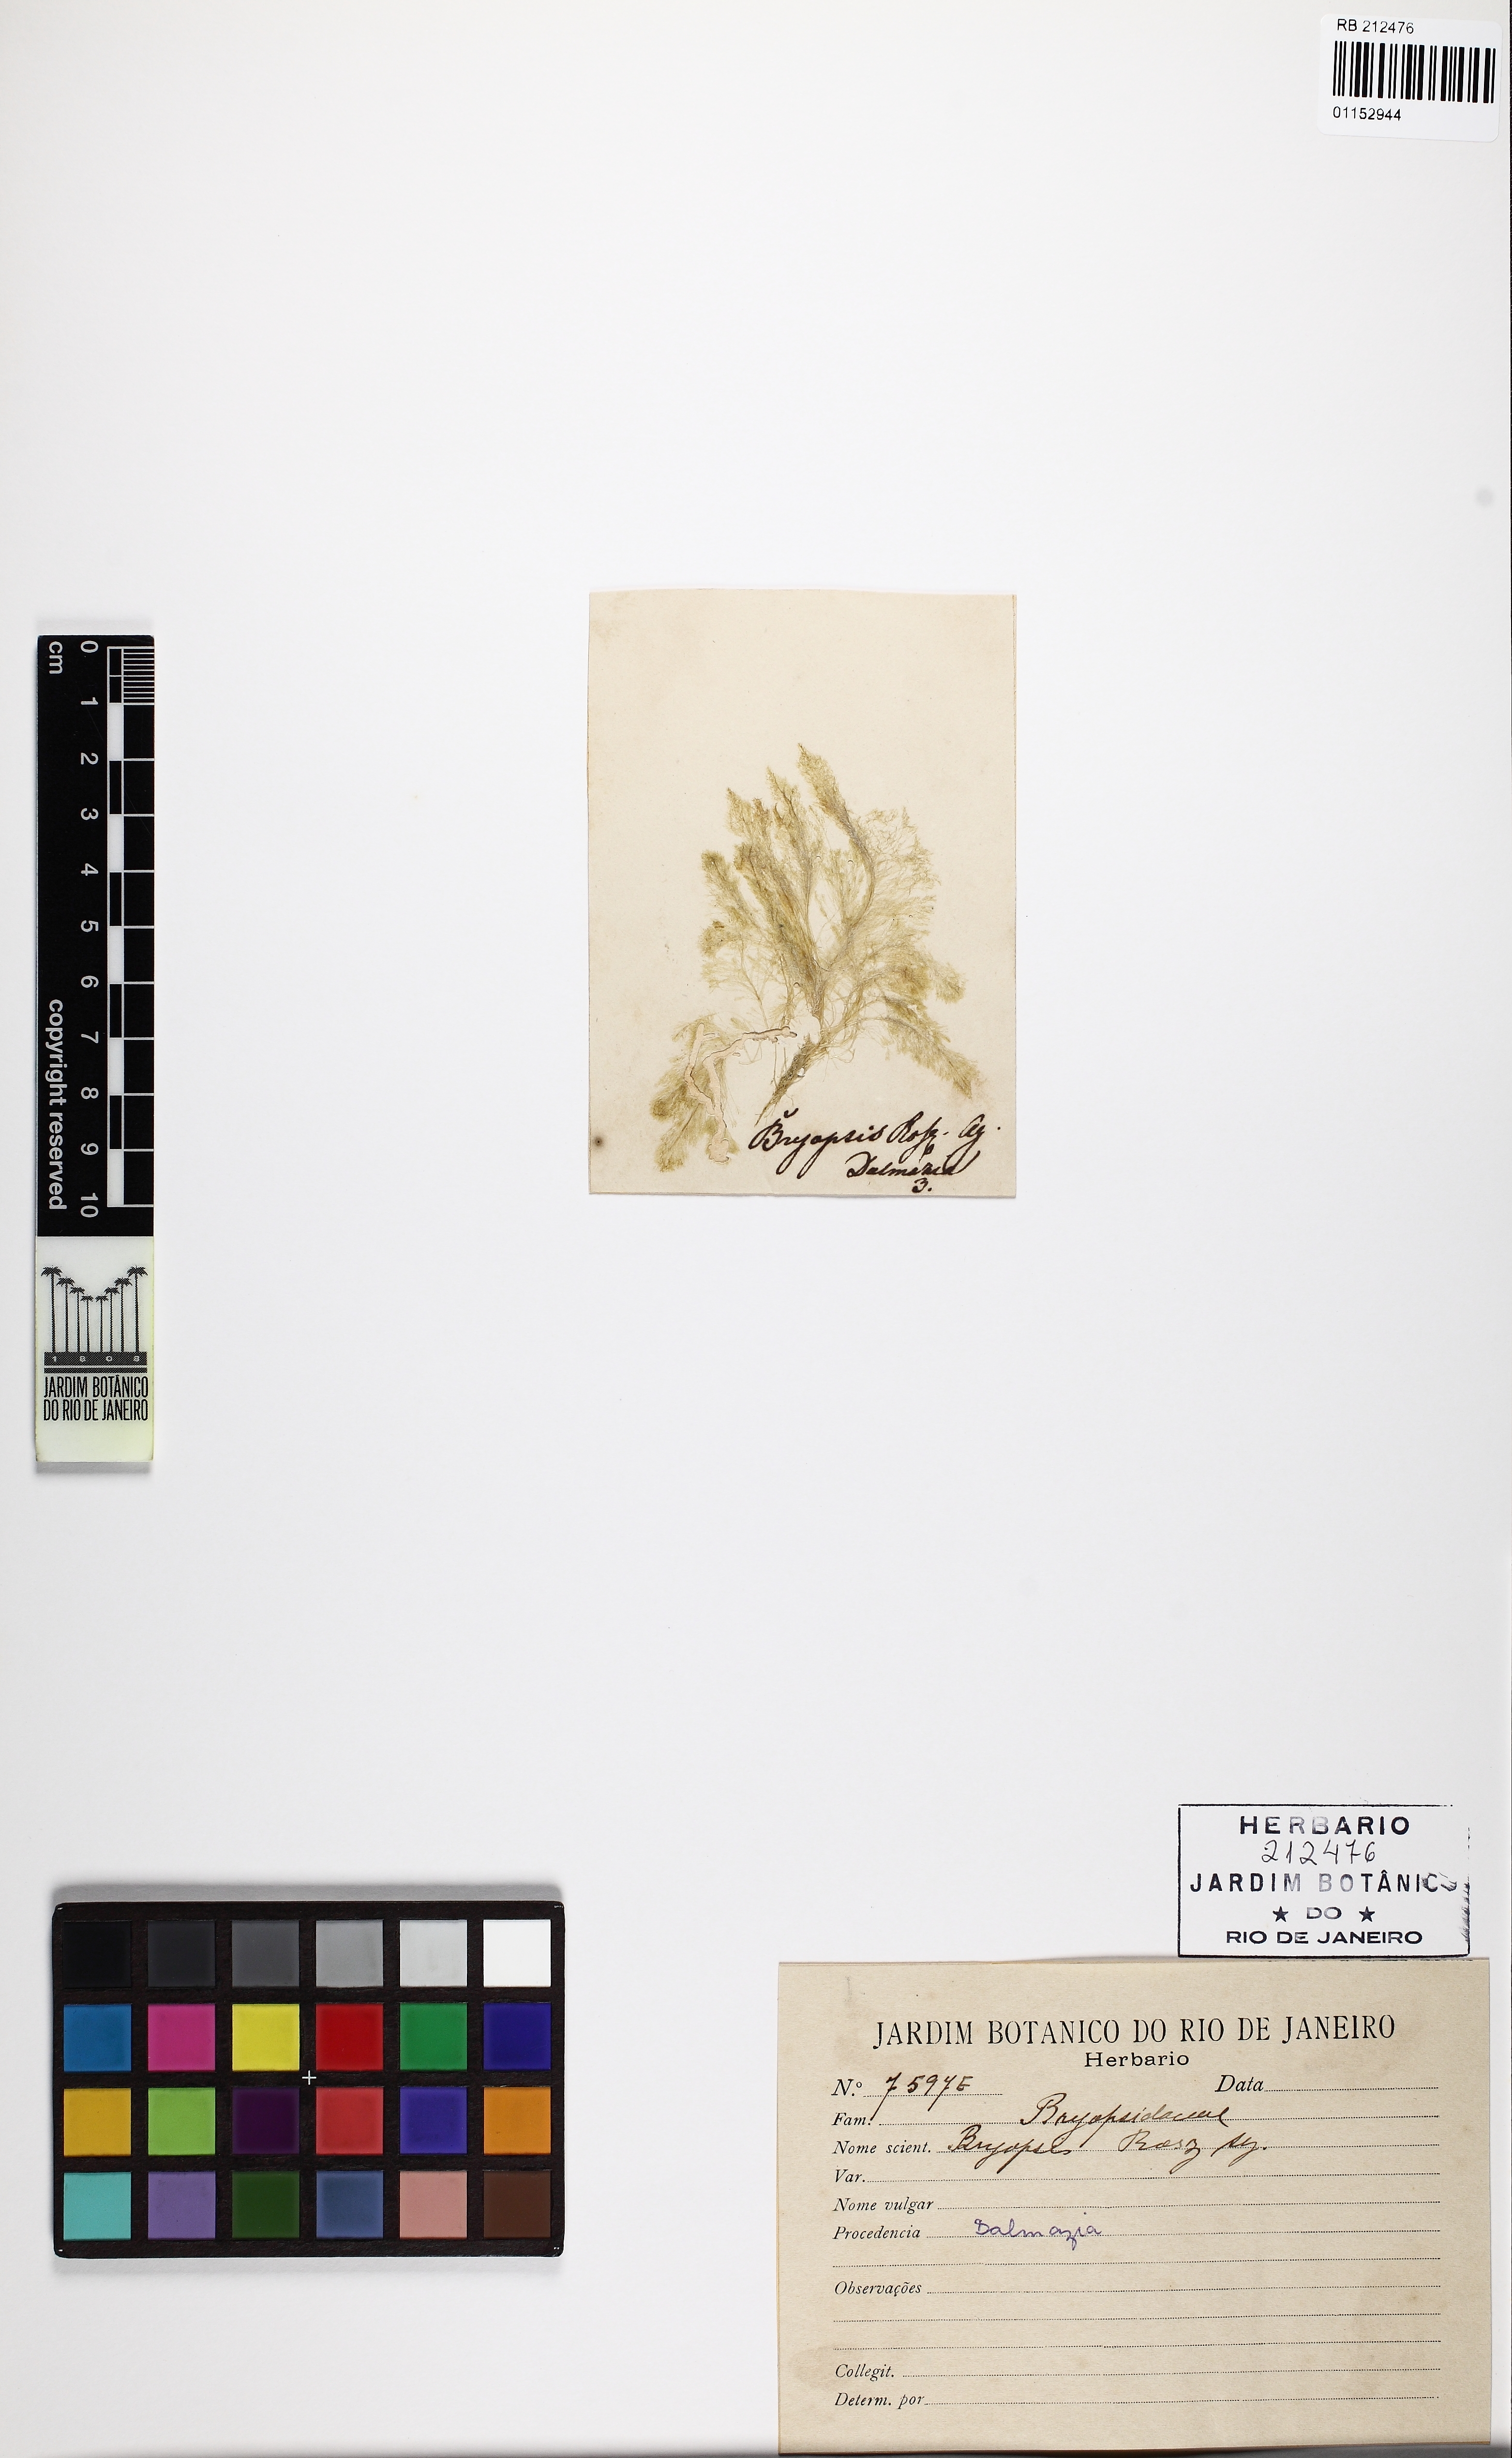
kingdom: Plantae
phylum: Chlorophyta
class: Ulvophyceae
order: Bryopsidales
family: Bryopsidaceae
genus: Bryopsis
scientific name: Bryopsis rosea
